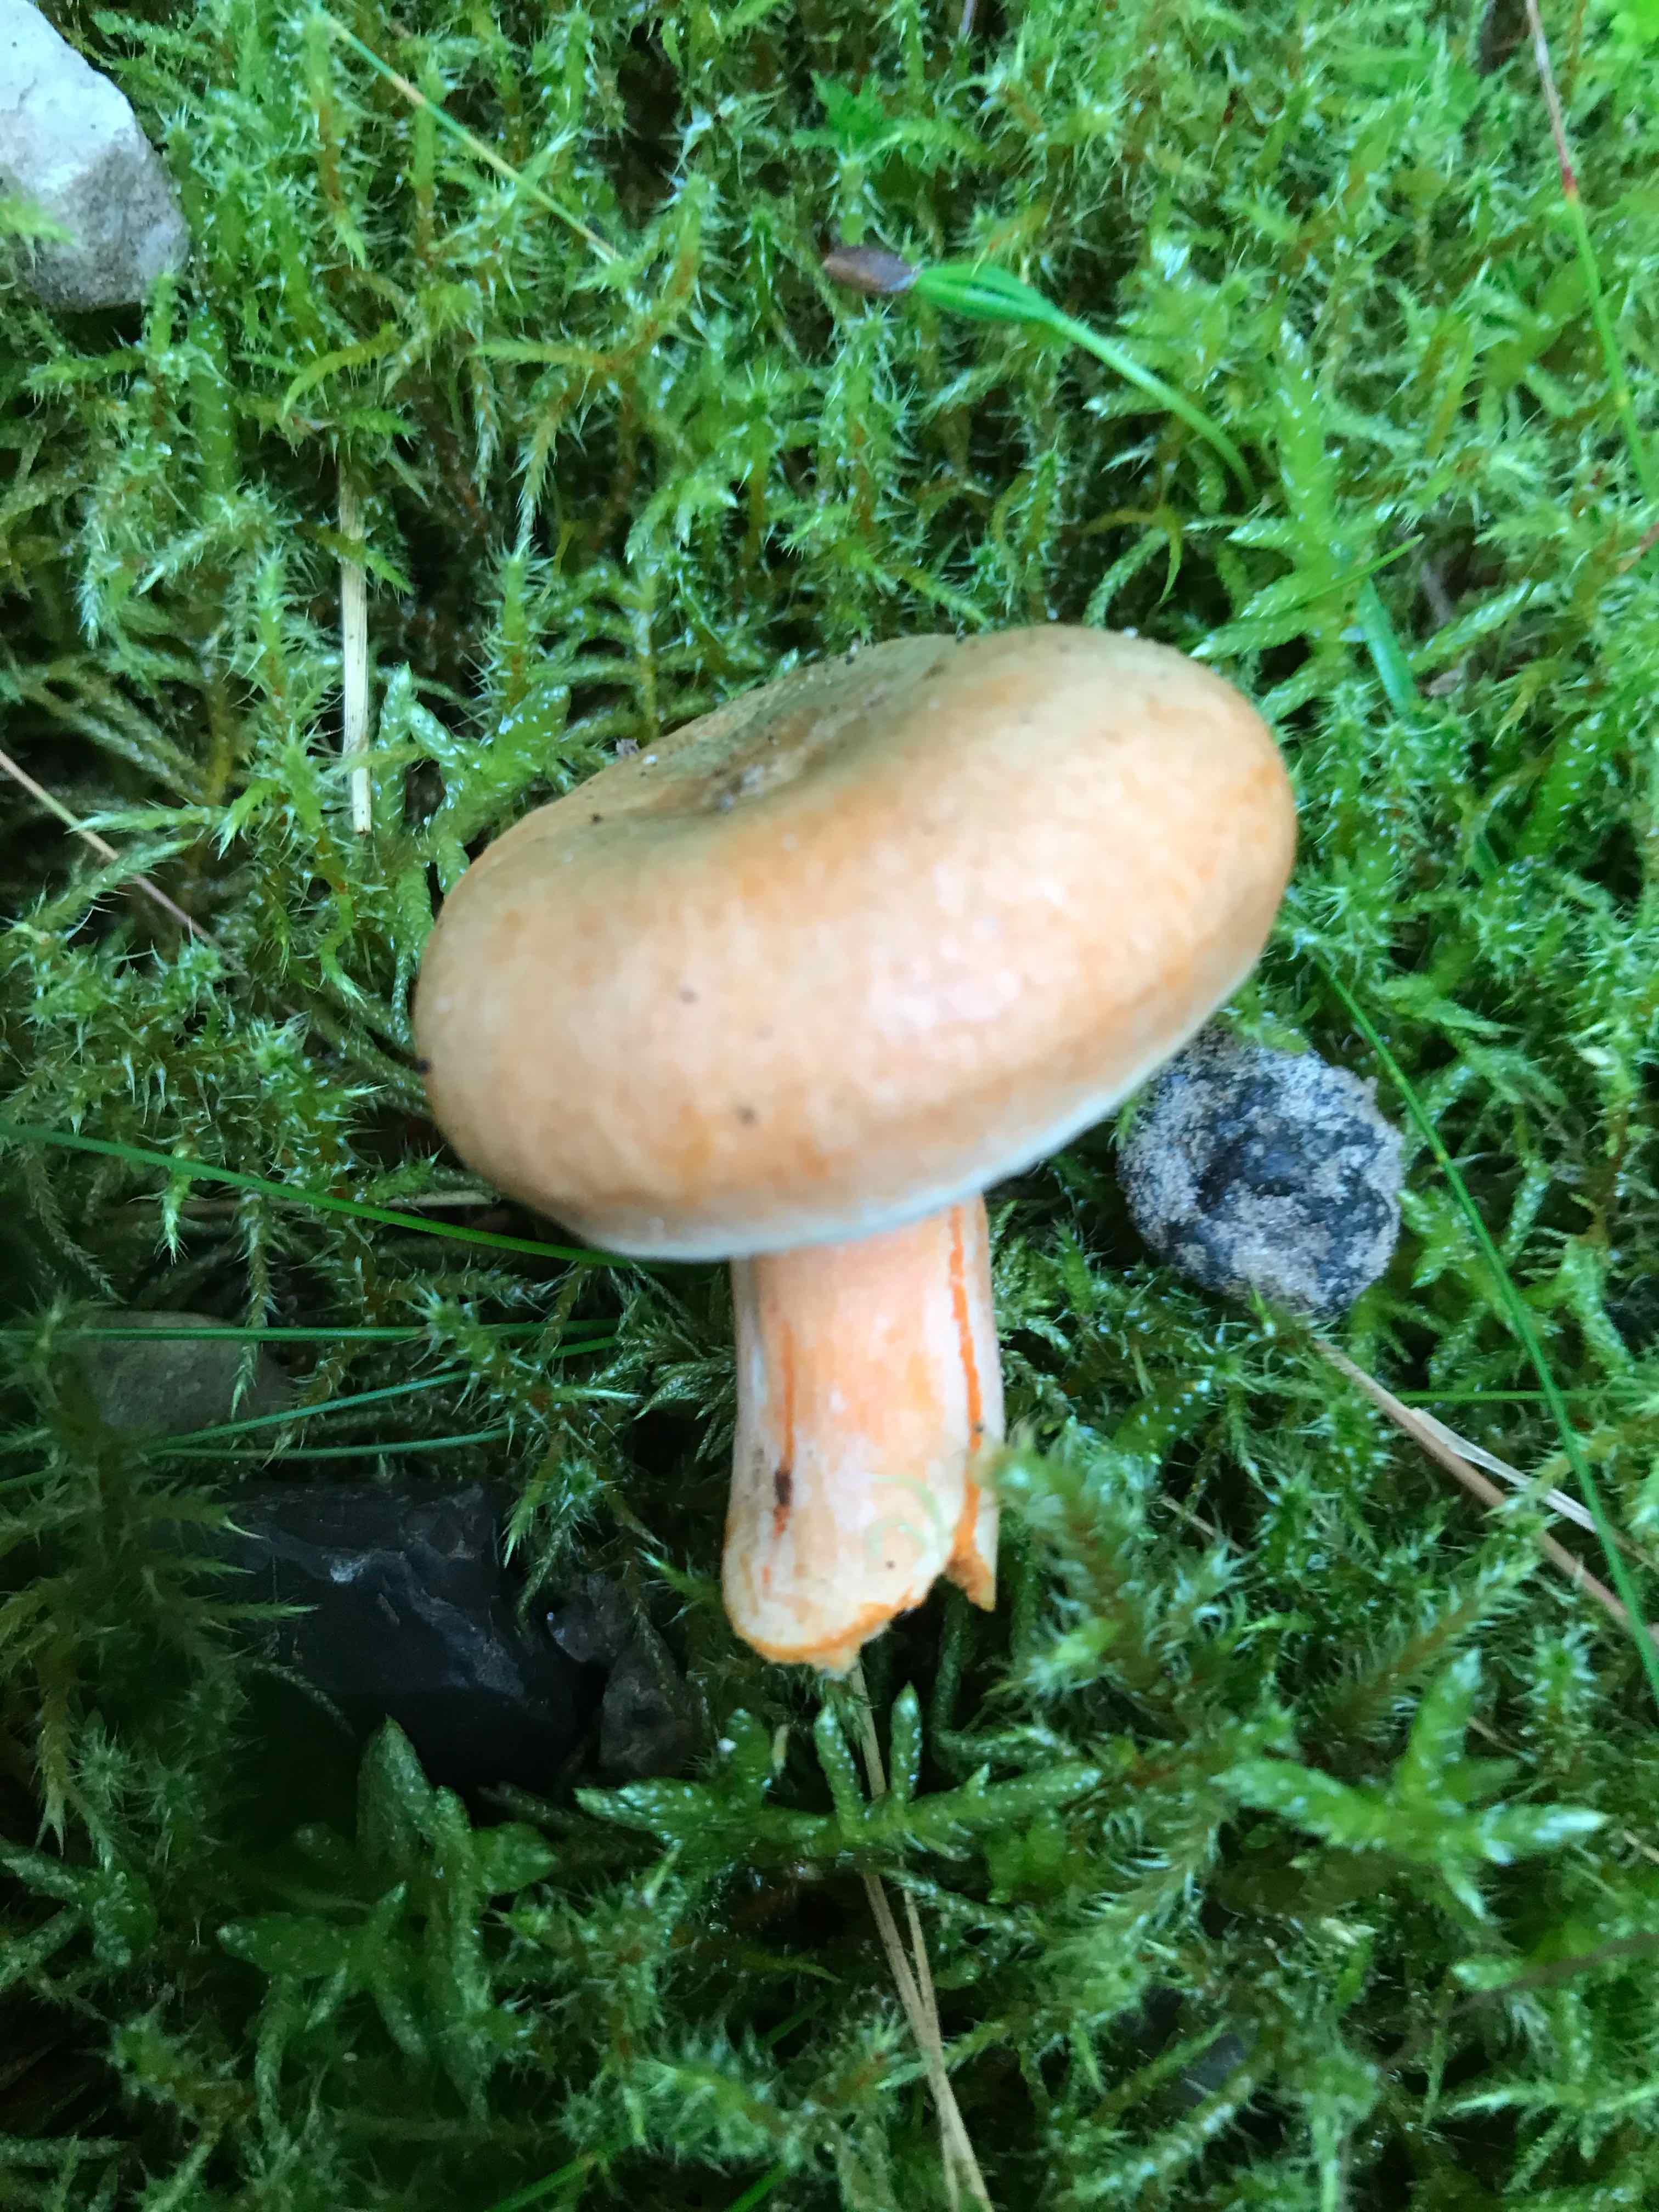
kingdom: Fungi
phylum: Basidiomycota
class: Agaricomycetes
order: Russulales
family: Russulaceae
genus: Lactarius
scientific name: Lactarius deterrimus
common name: gran-mælkehat
